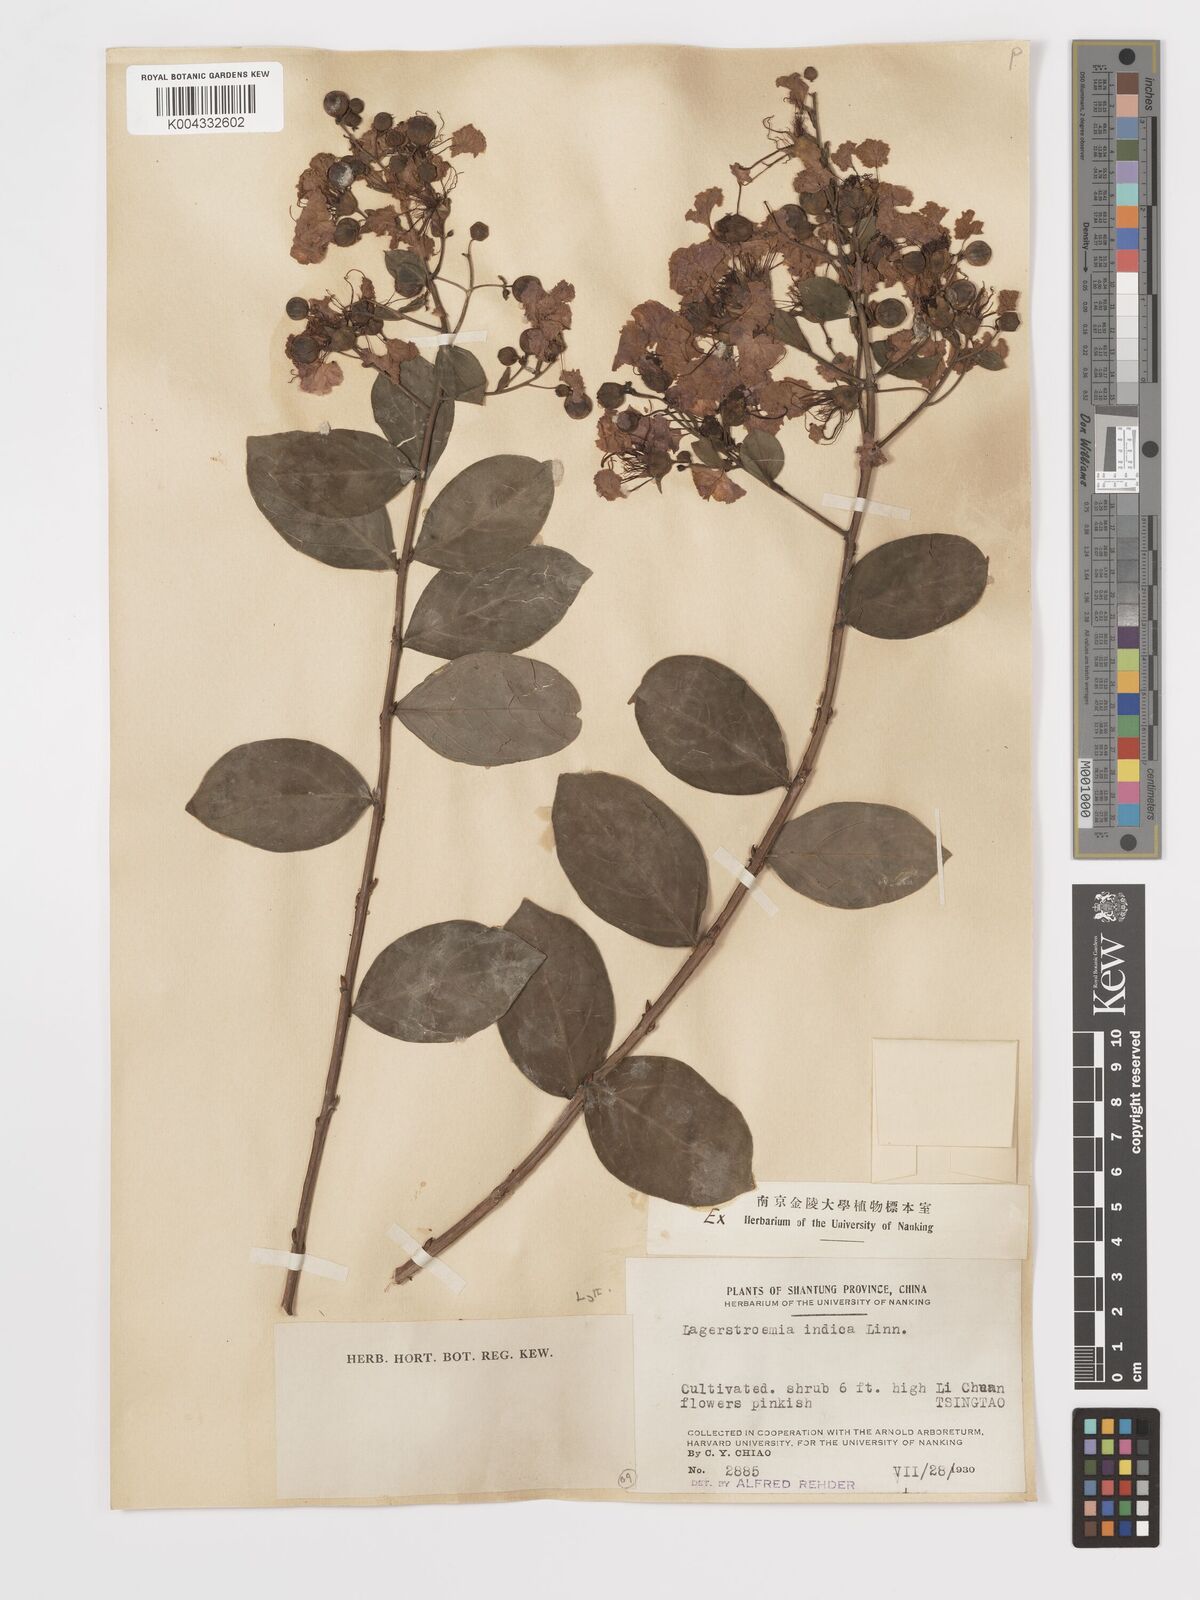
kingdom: Plantae
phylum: Tracheophyta
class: Magnoliopsida
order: Myrtales
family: Lythraceae
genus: Lagerstroemia
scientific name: Lagerstroemia indica
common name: Crape-myrtle
